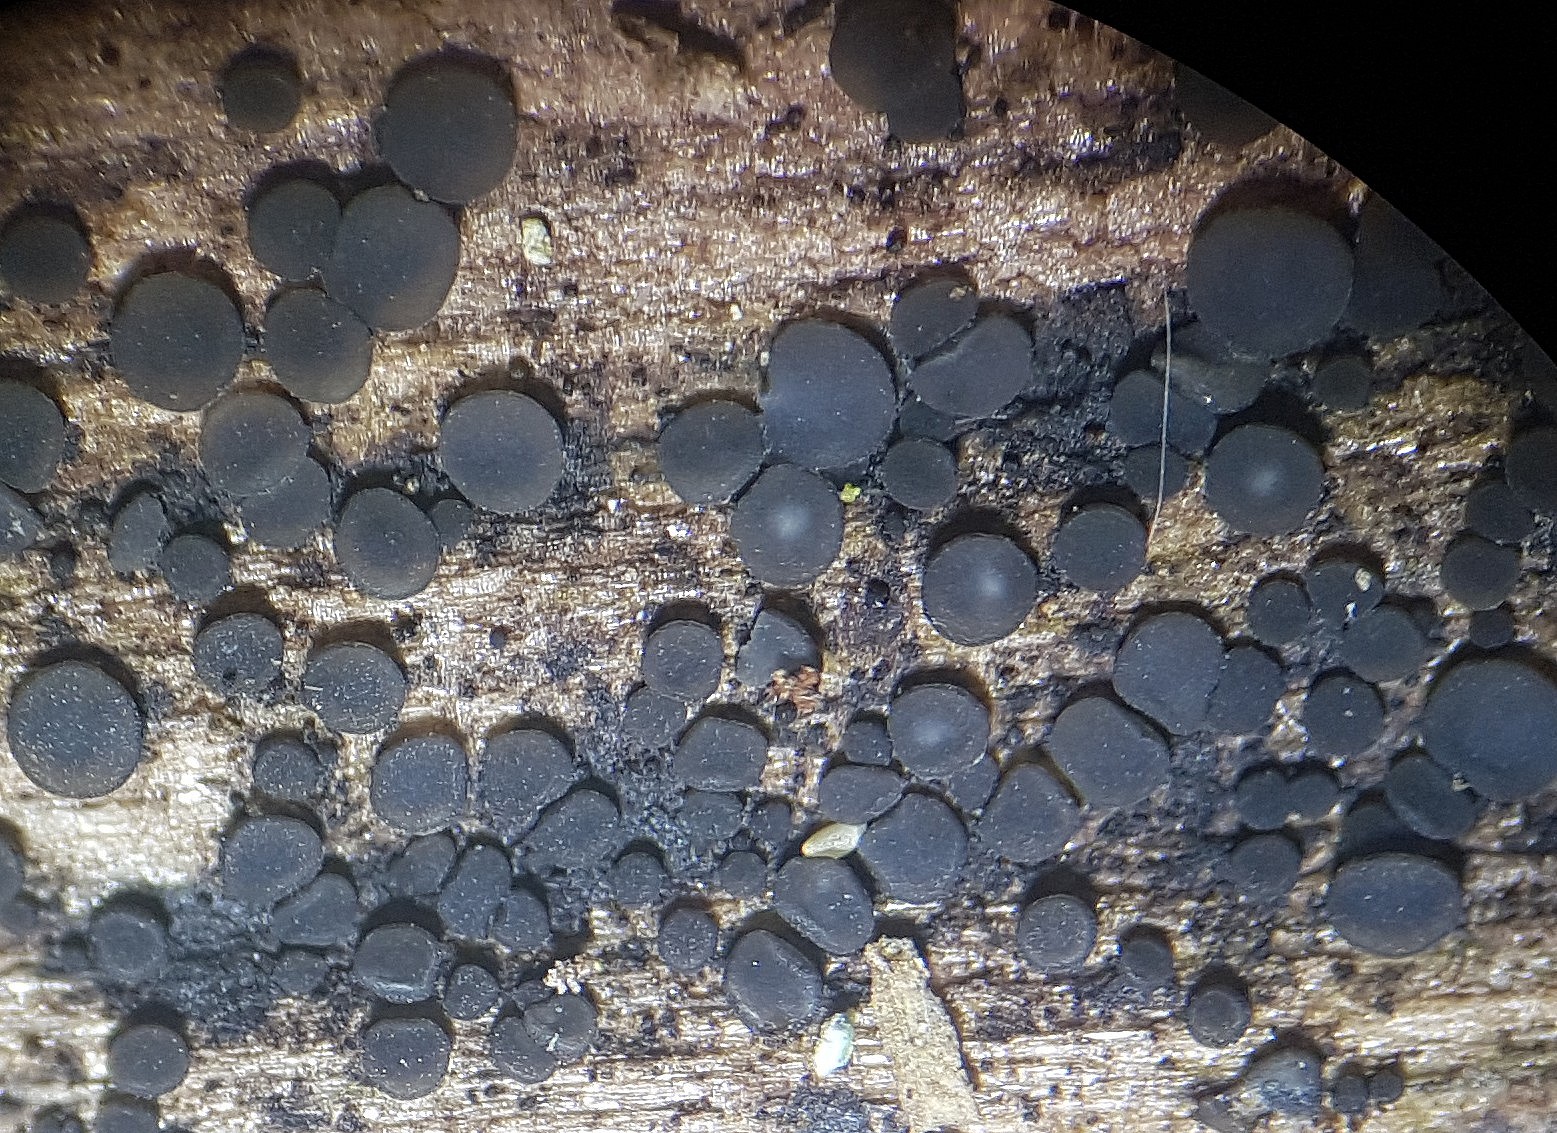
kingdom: Fungi
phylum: Ascomycota
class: Leotiomycetes
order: Helotiales
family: Mollisiaceae
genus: Mollisia
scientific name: Mollisia
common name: gråskive
